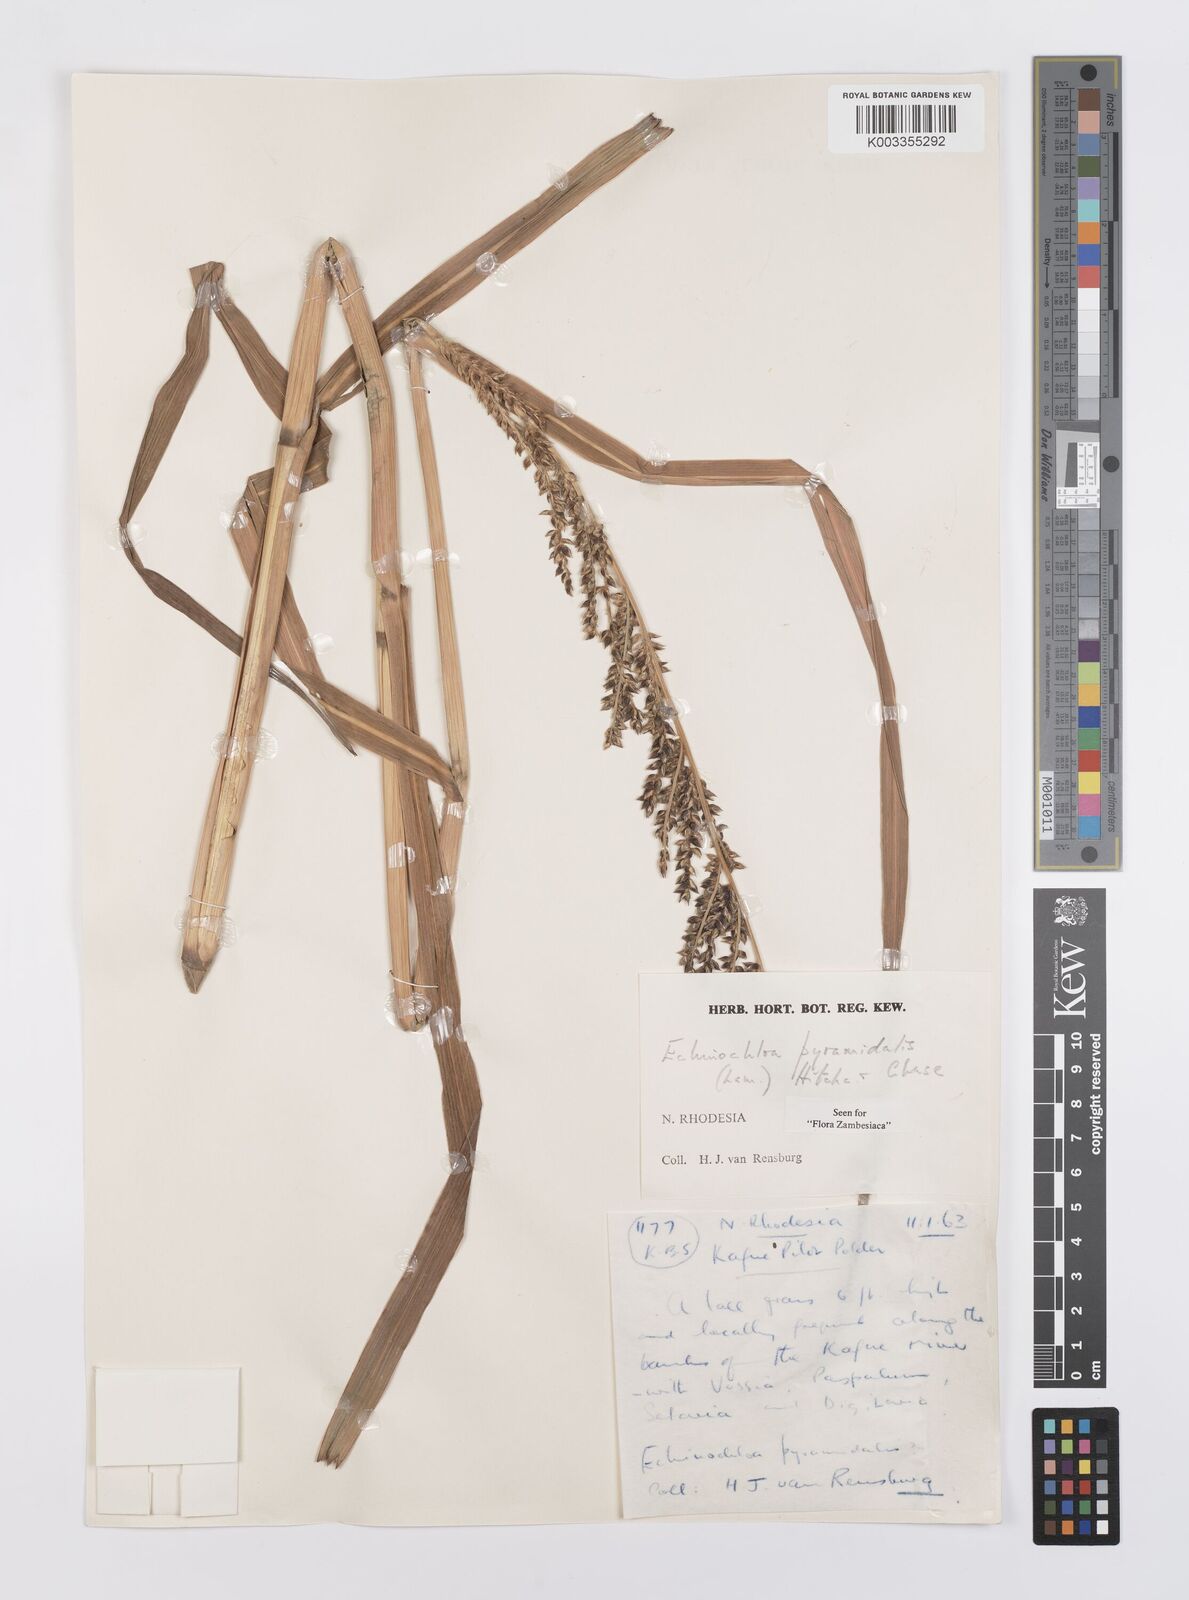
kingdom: Plantae
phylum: Tracheophyta
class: Liliopsida
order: Poales
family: Poaceae
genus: Echinochloa
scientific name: Echinochloa pyramidalis
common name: Antelope grass
